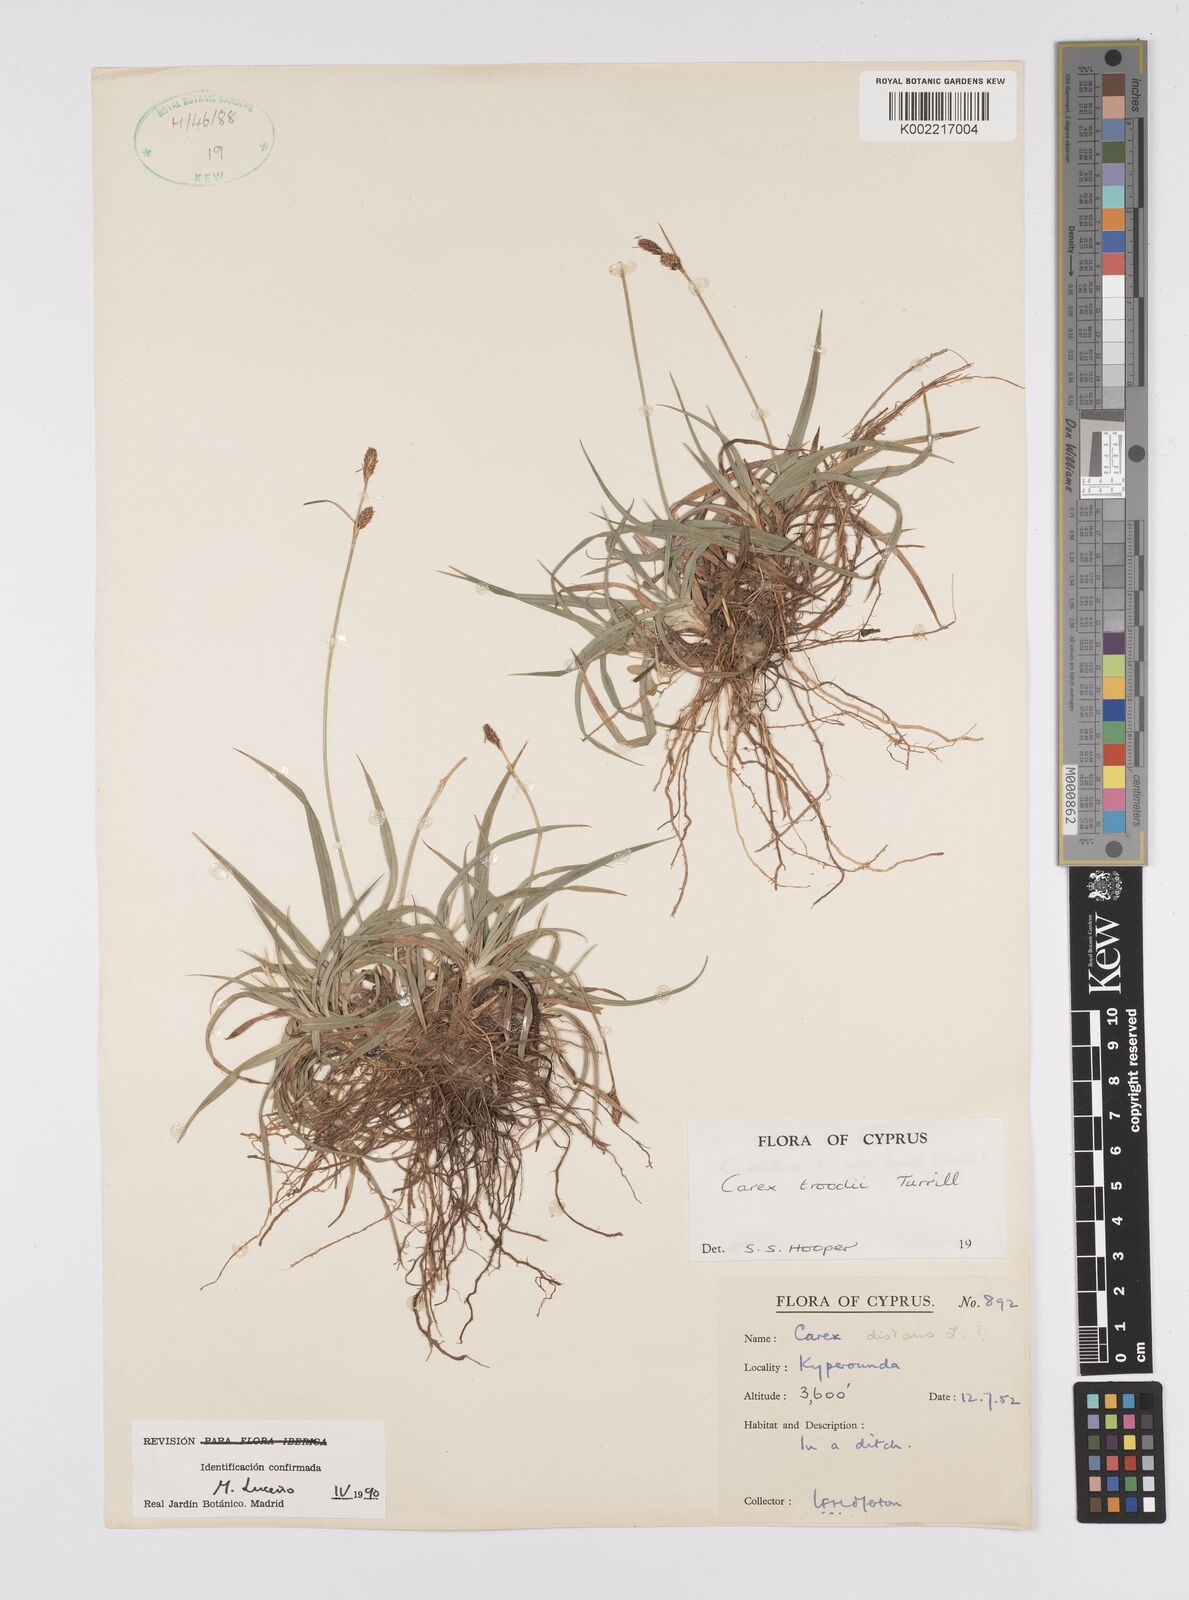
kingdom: Plantae
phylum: Tracheophyta
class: Liliopsida
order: Poales
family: Cyperaceae
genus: Carex
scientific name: Carex troodi
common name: Troodos mount sedge
